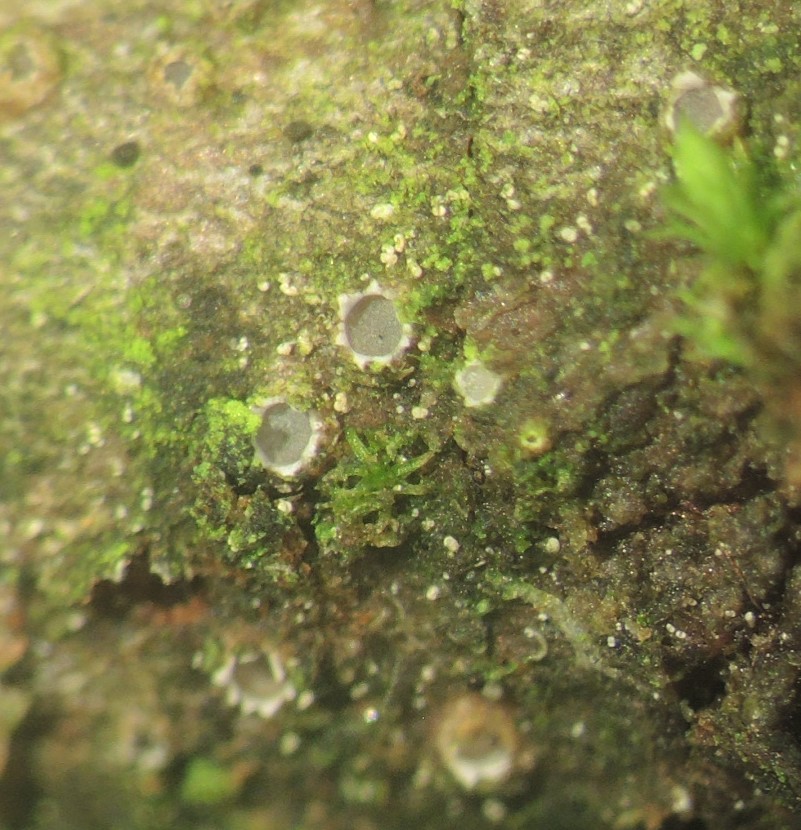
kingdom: Fungi
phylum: Ascomycota
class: Lecanoromycetes
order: Ostropales
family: Stictidaceae
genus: Karstenia
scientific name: Karstenia rhopaloides
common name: grårosa barkhul
